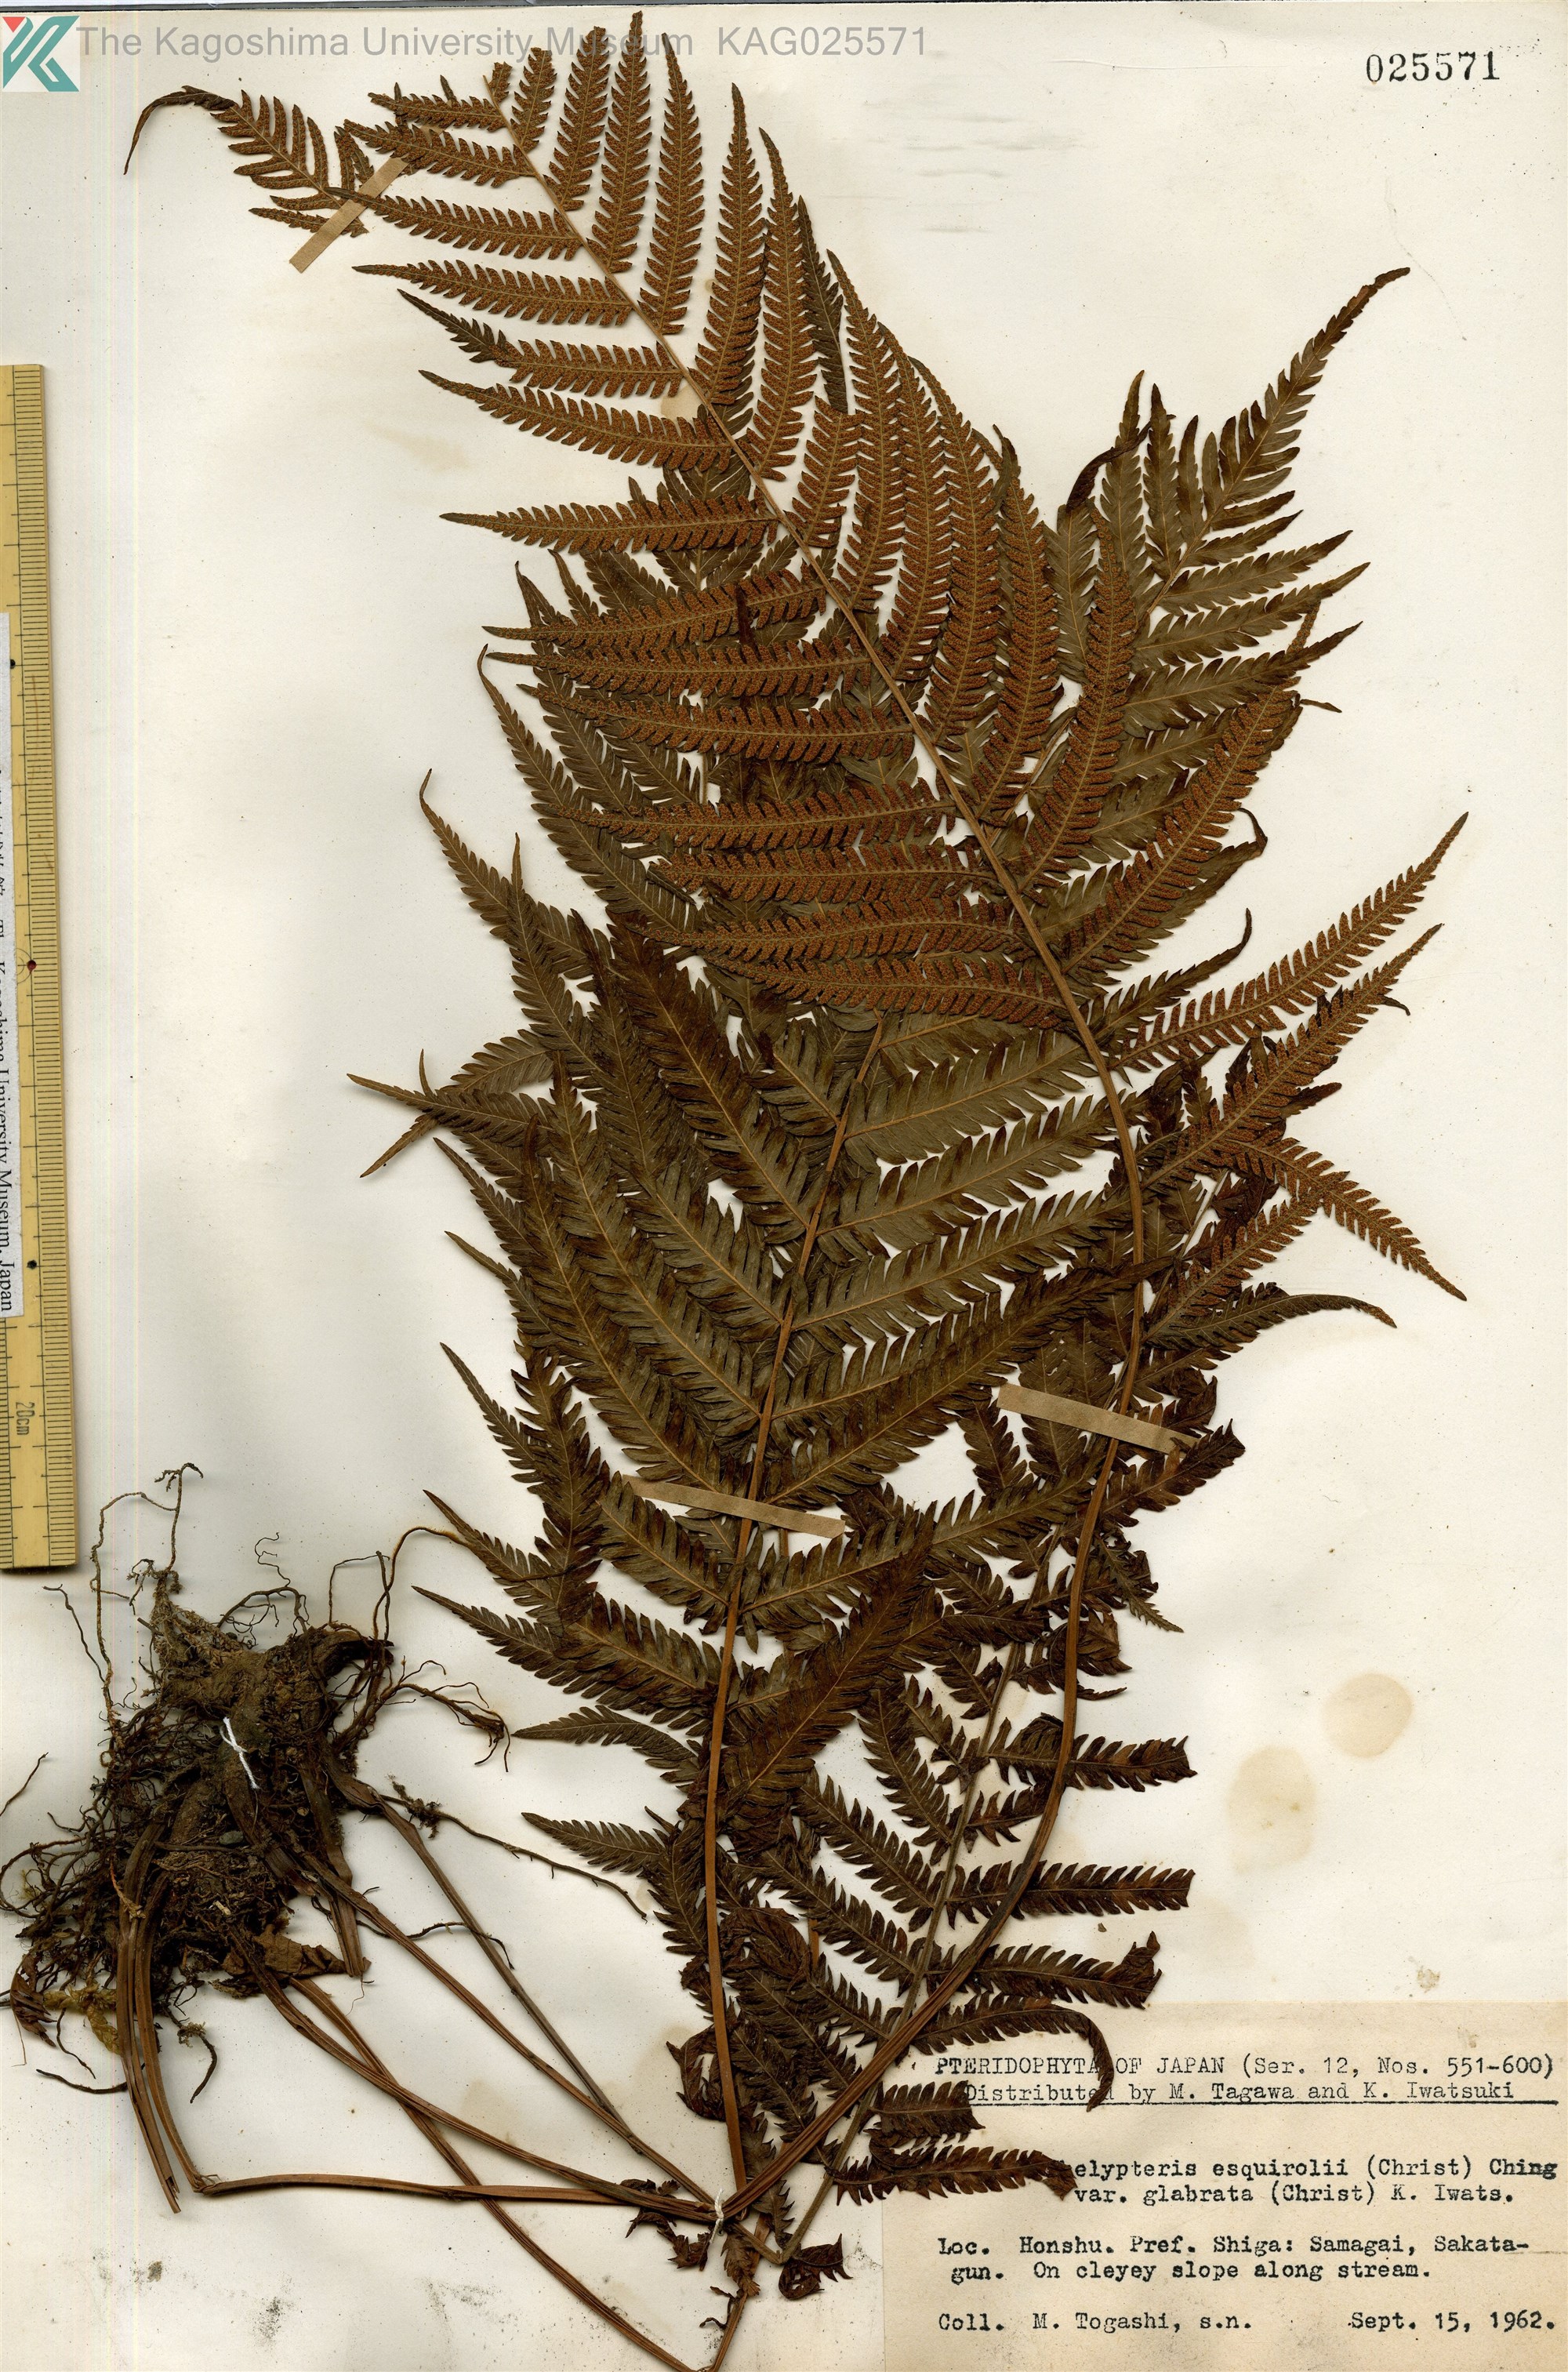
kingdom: Plantae
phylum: Tracheophyta
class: Polypodiopsida
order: Polypodiales
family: Thelypteridaceae
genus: Pseudocyclosorus
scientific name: Pseudocyclosorus esquirolii
